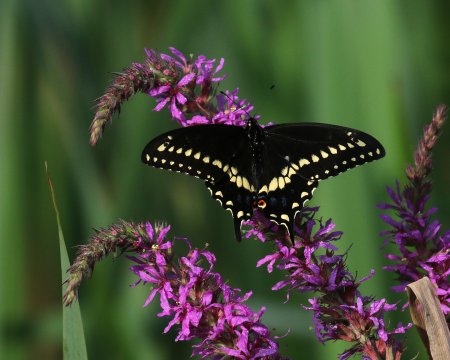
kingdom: Animalia
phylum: Arthropoda
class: Insecta
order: Lepidoptera
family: Papilionidae
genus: Papilio
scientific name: Papilio polyxenes
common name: Black Swallowtail
